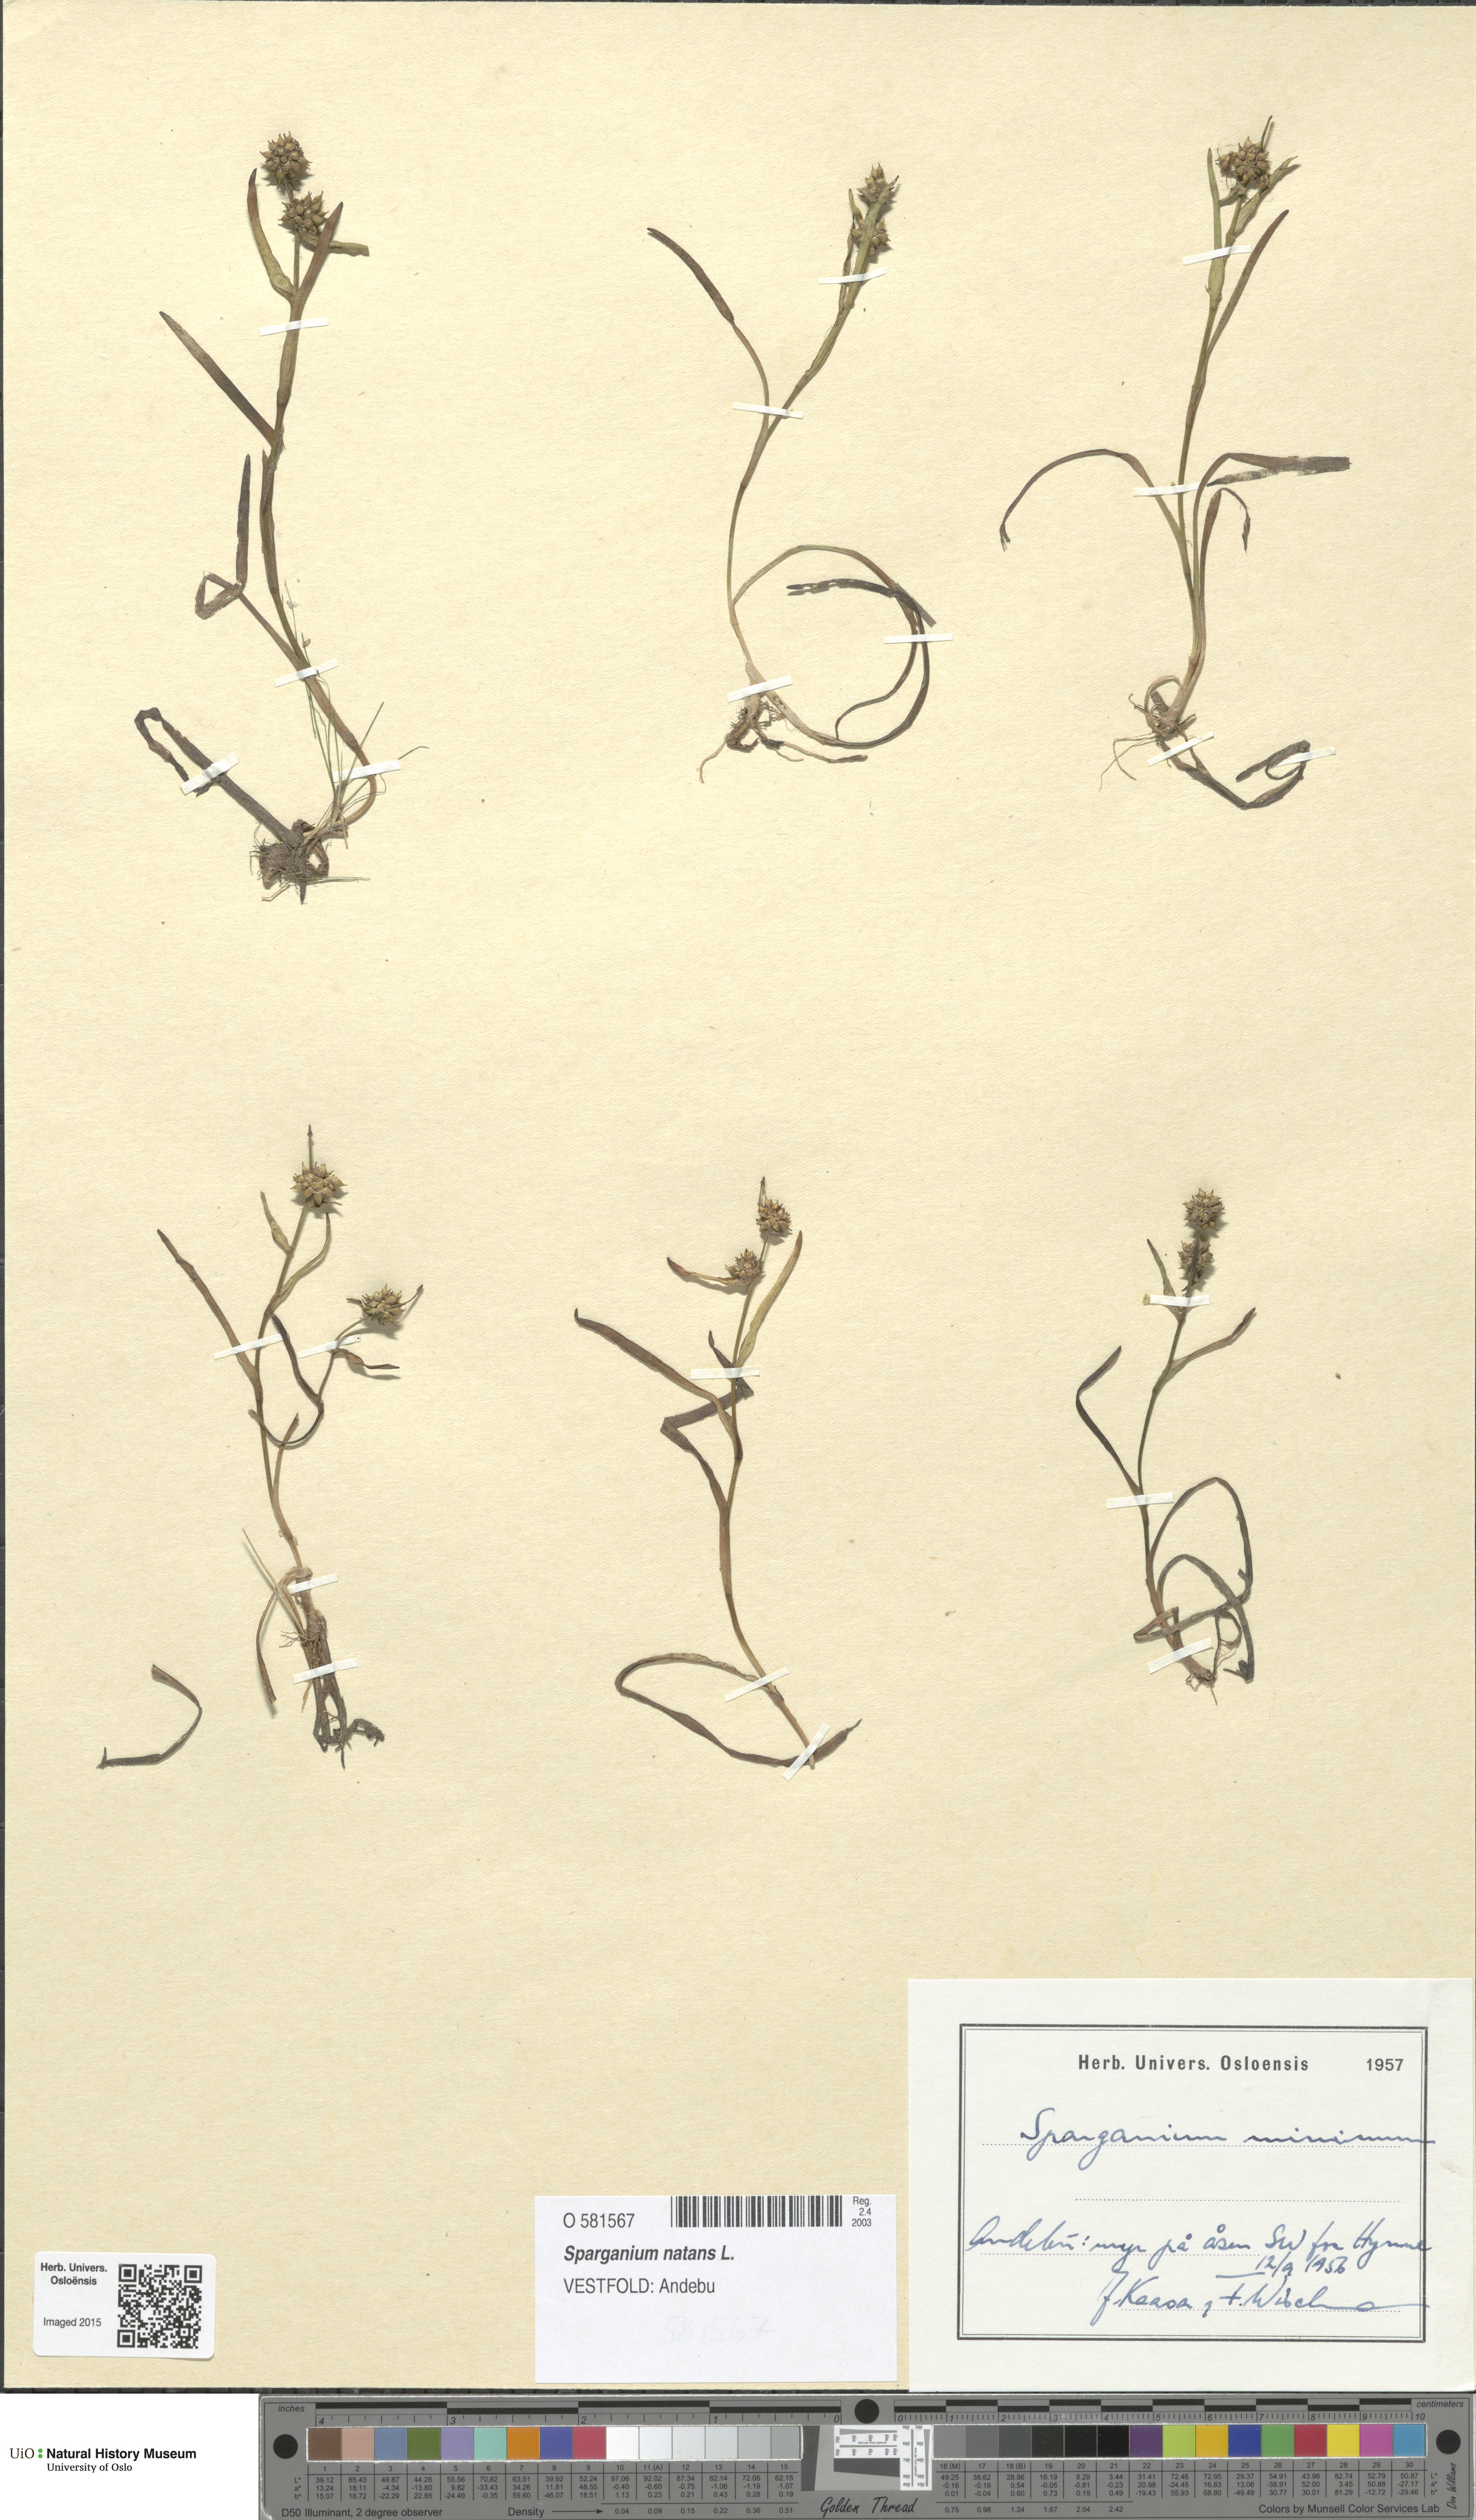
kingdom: Plantae
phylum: Tracheophyta
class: Liliopsida
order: Poales
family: Typhaceae
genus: Sparganium
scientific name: Sparganium natans
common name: Least bur-reed
